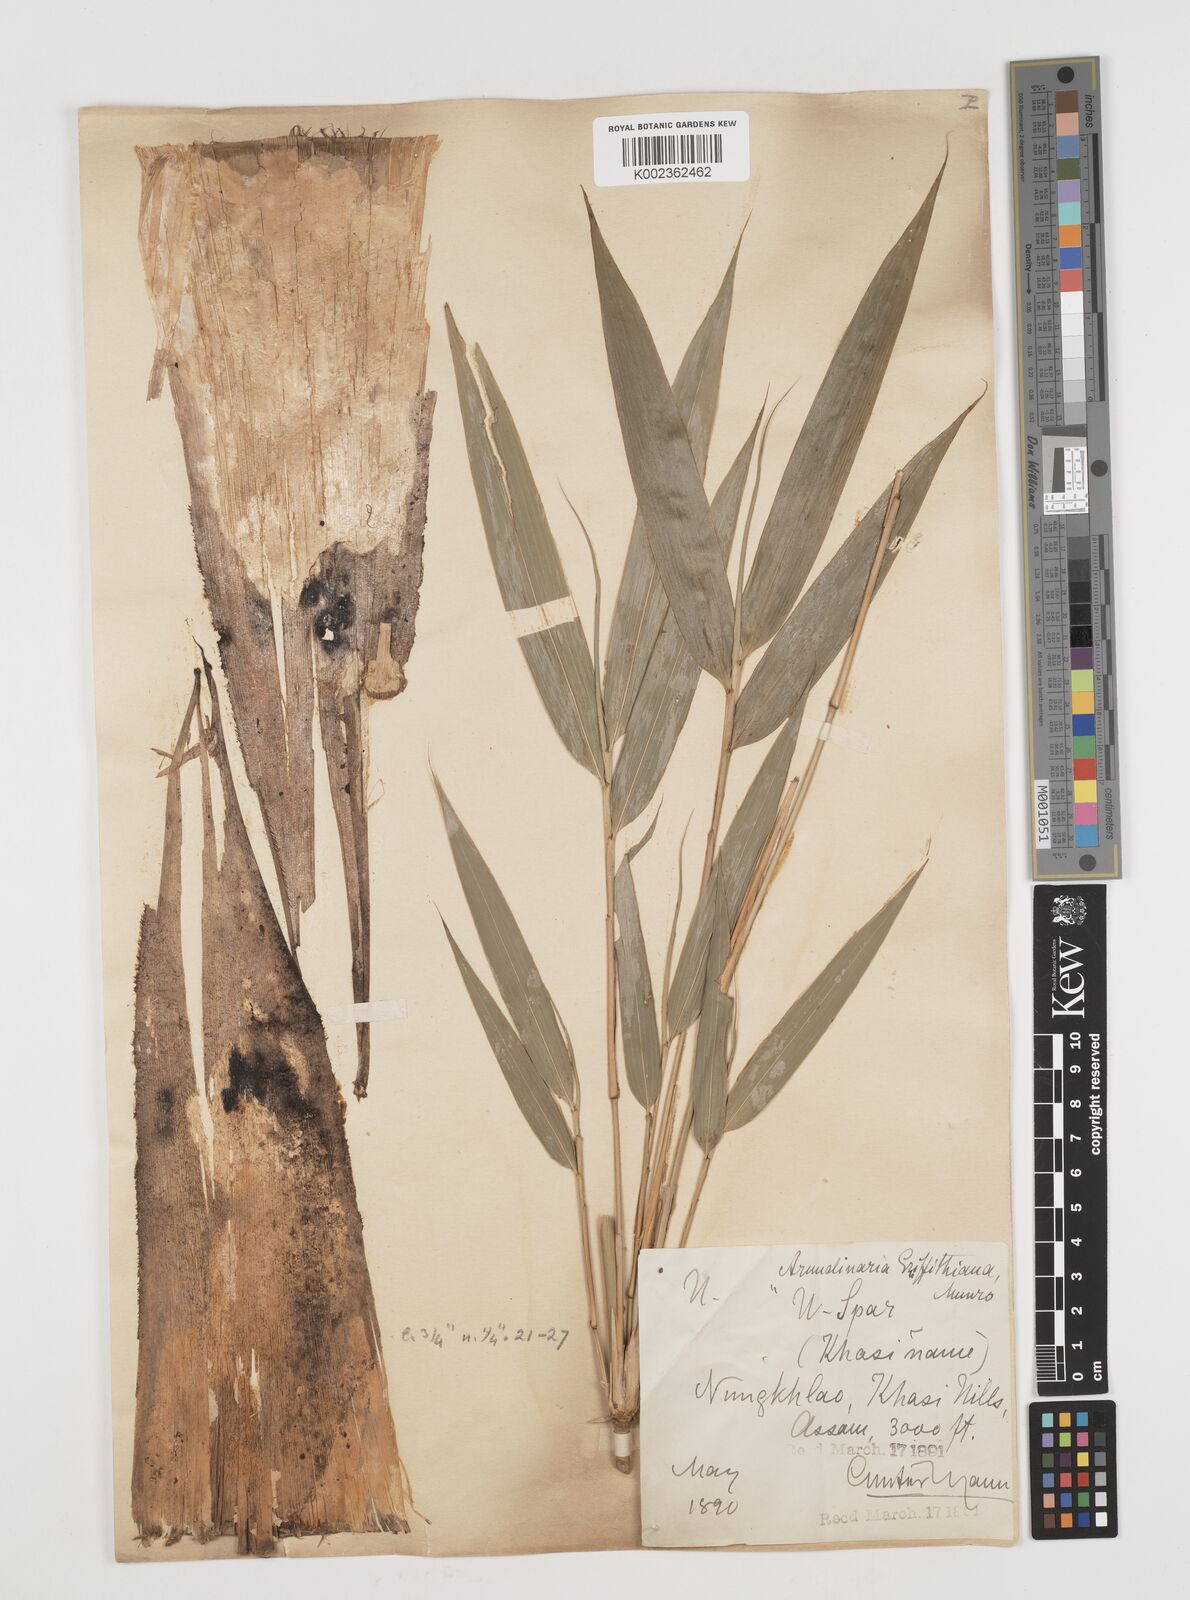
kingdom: Plantae
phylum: Tracheophyta
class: Liliopsida
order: Poales
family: Poaceae
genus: Chimonocalamus
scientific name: Chimonocalamus griffithianus
